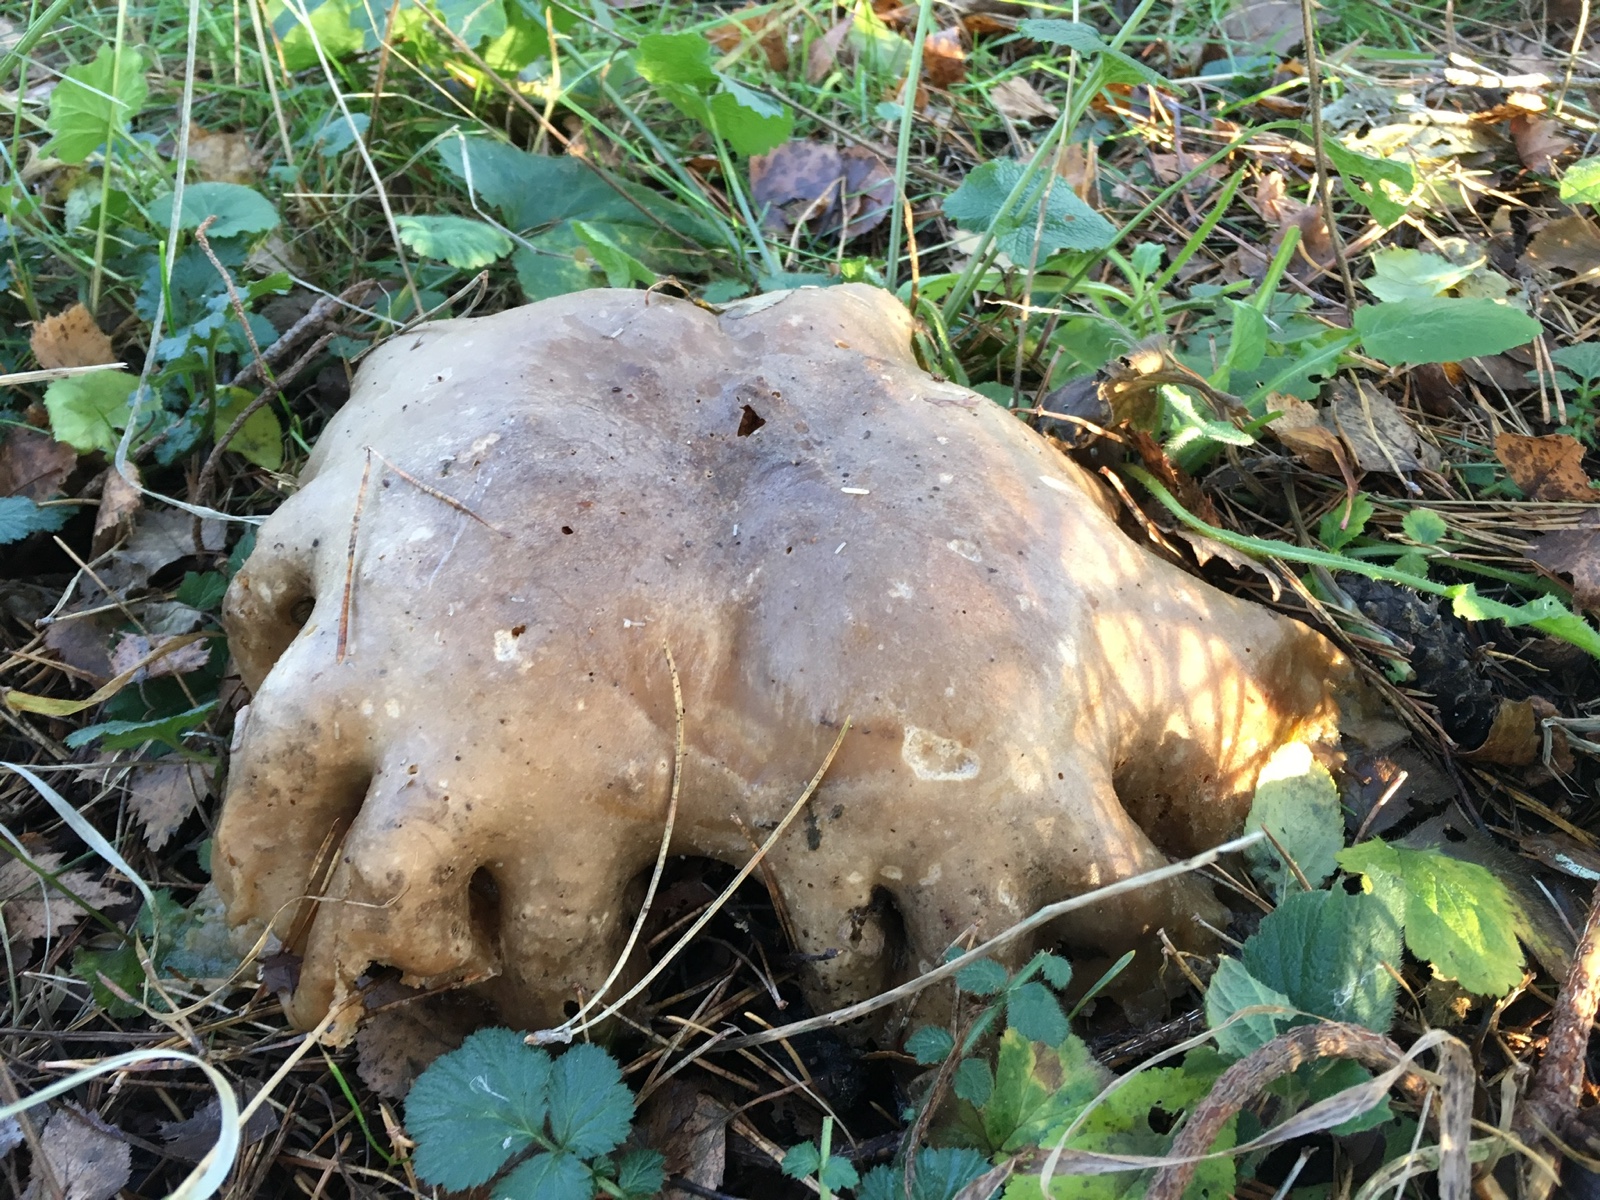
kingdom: Fungi
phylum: Basidiomycota
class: Agaricomycetes
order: Agaricales
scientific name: Agaricales
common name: champignonordenen
